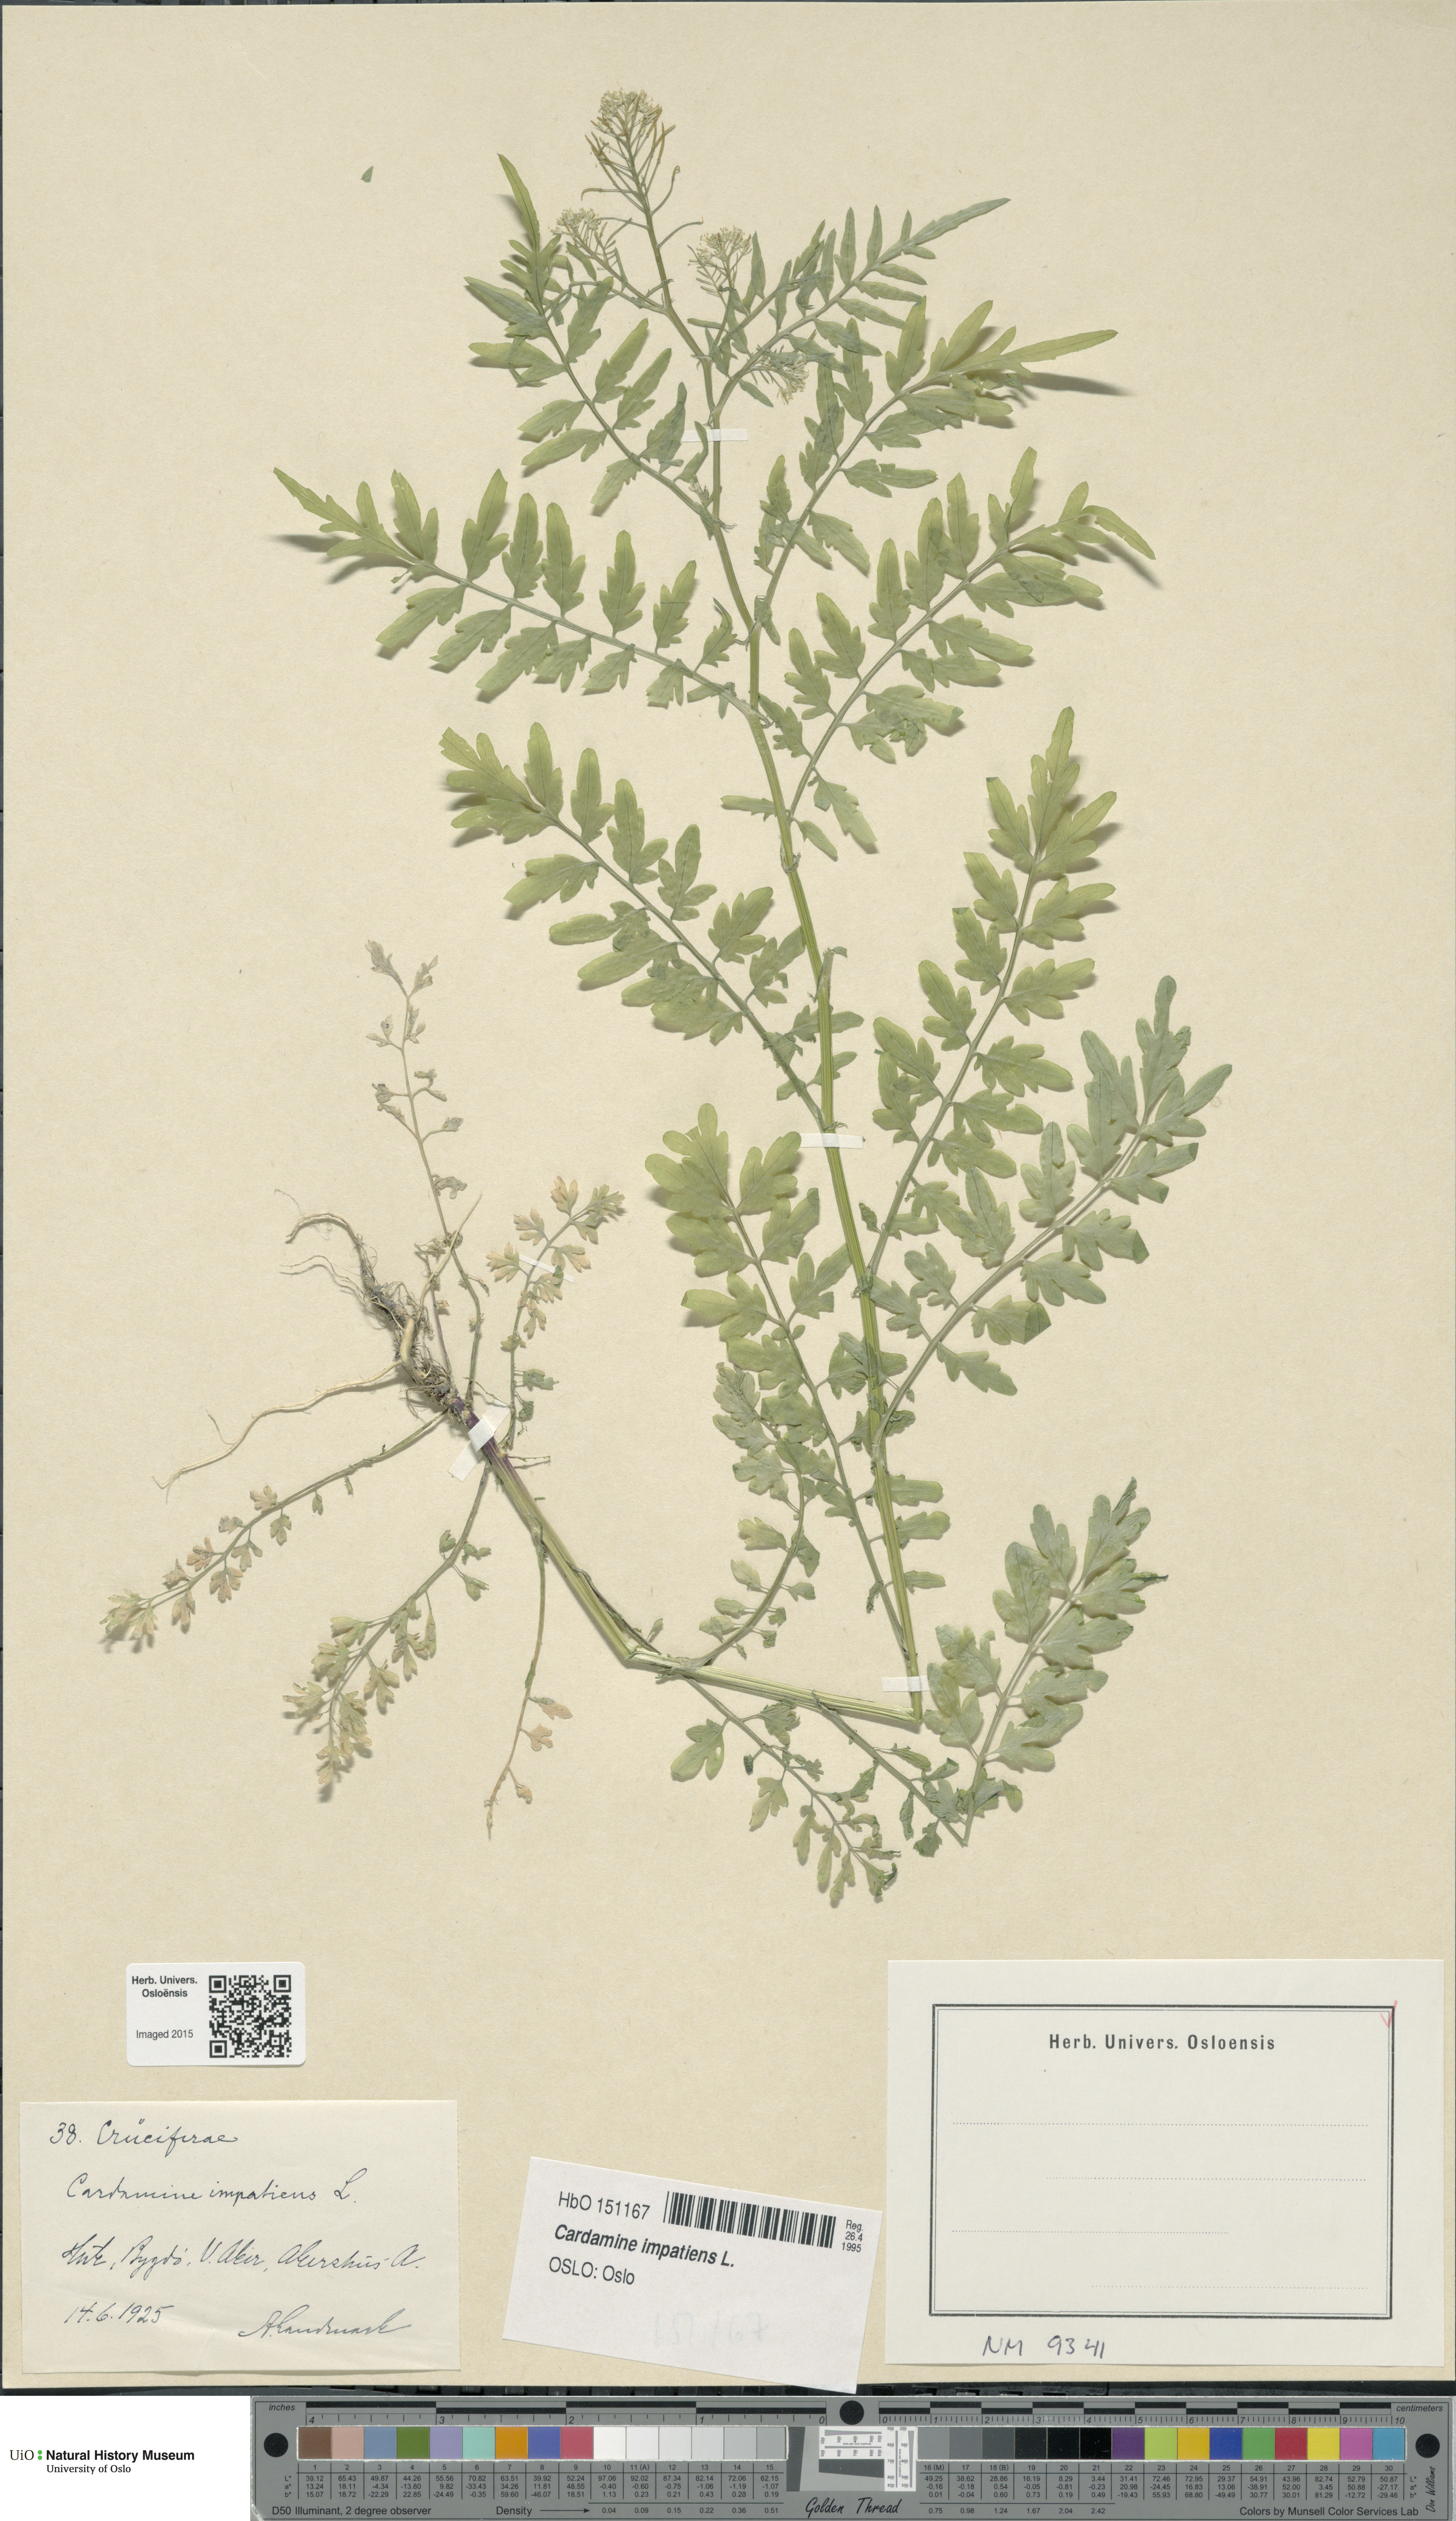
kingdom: Plantae
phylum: Tracheophyta
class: Magnoliopsida
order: Brassicales
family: Brassicaceae
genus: Cardamine
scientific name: Cardamine impatiens
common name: Narrow-leaved bitter-cress
